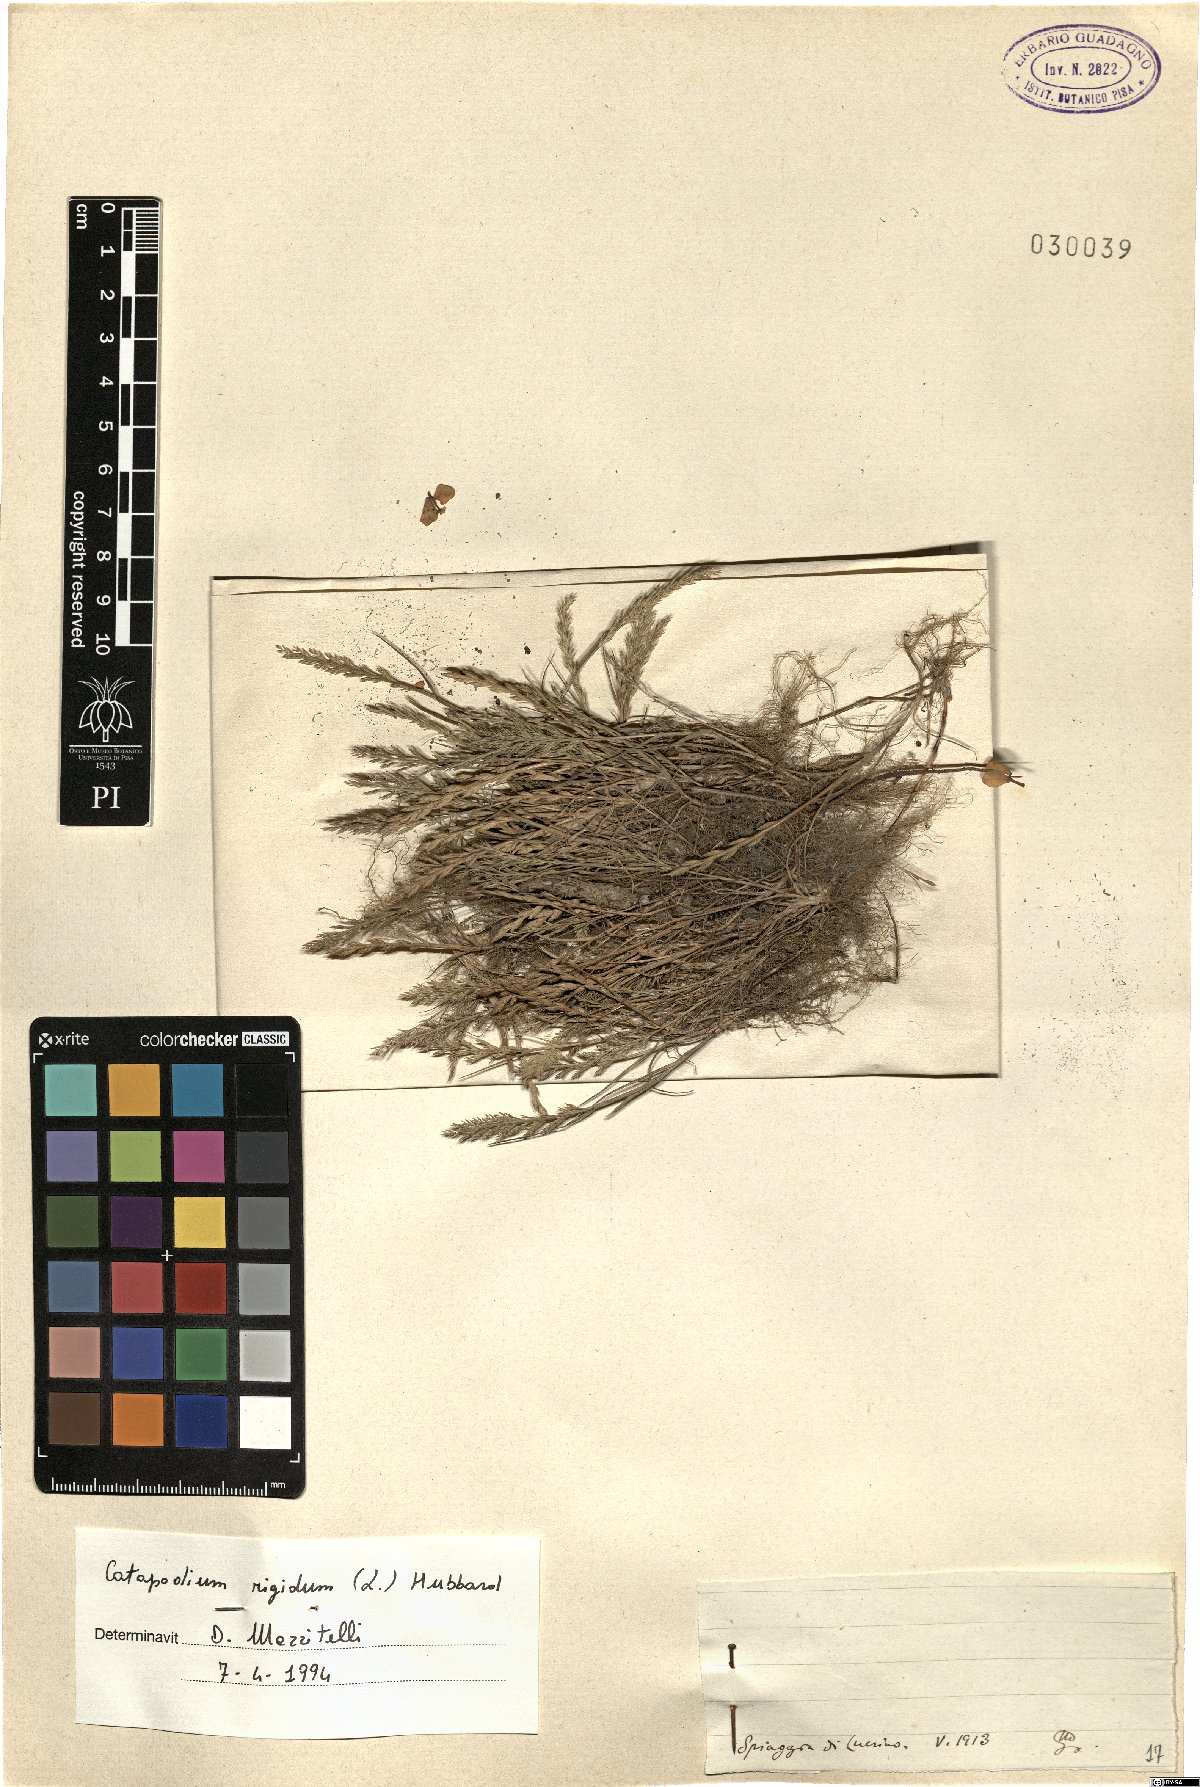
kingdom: Plantae
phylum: Tracheophyta
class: Liliopsida
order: Poales
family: Poaceae
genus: Catapodium
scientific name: Catapodium rigidum
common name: Fern-grass
